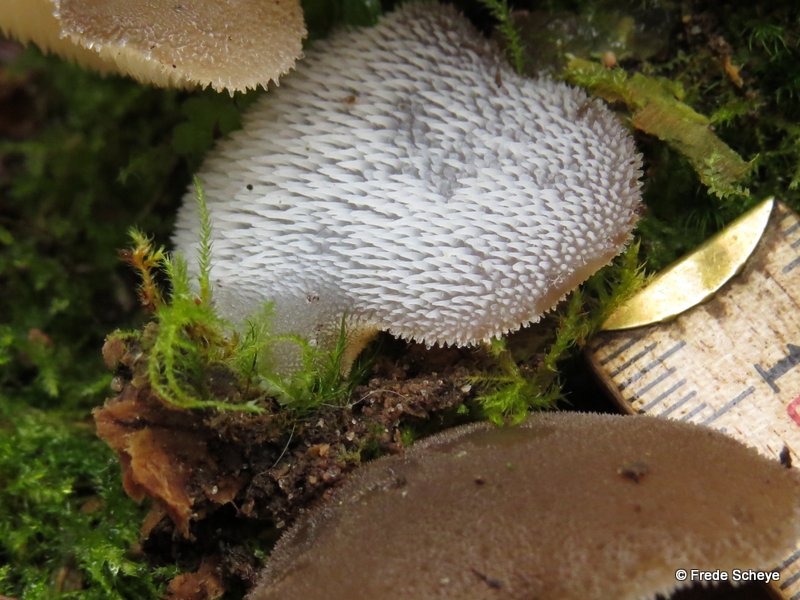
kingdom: Fungi
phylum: Basidiomycota
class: Agaricomycetes
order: Auriculariales
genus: Pseudohydnum
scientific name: Pseudohydnum gelatinosum
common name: bævretand
